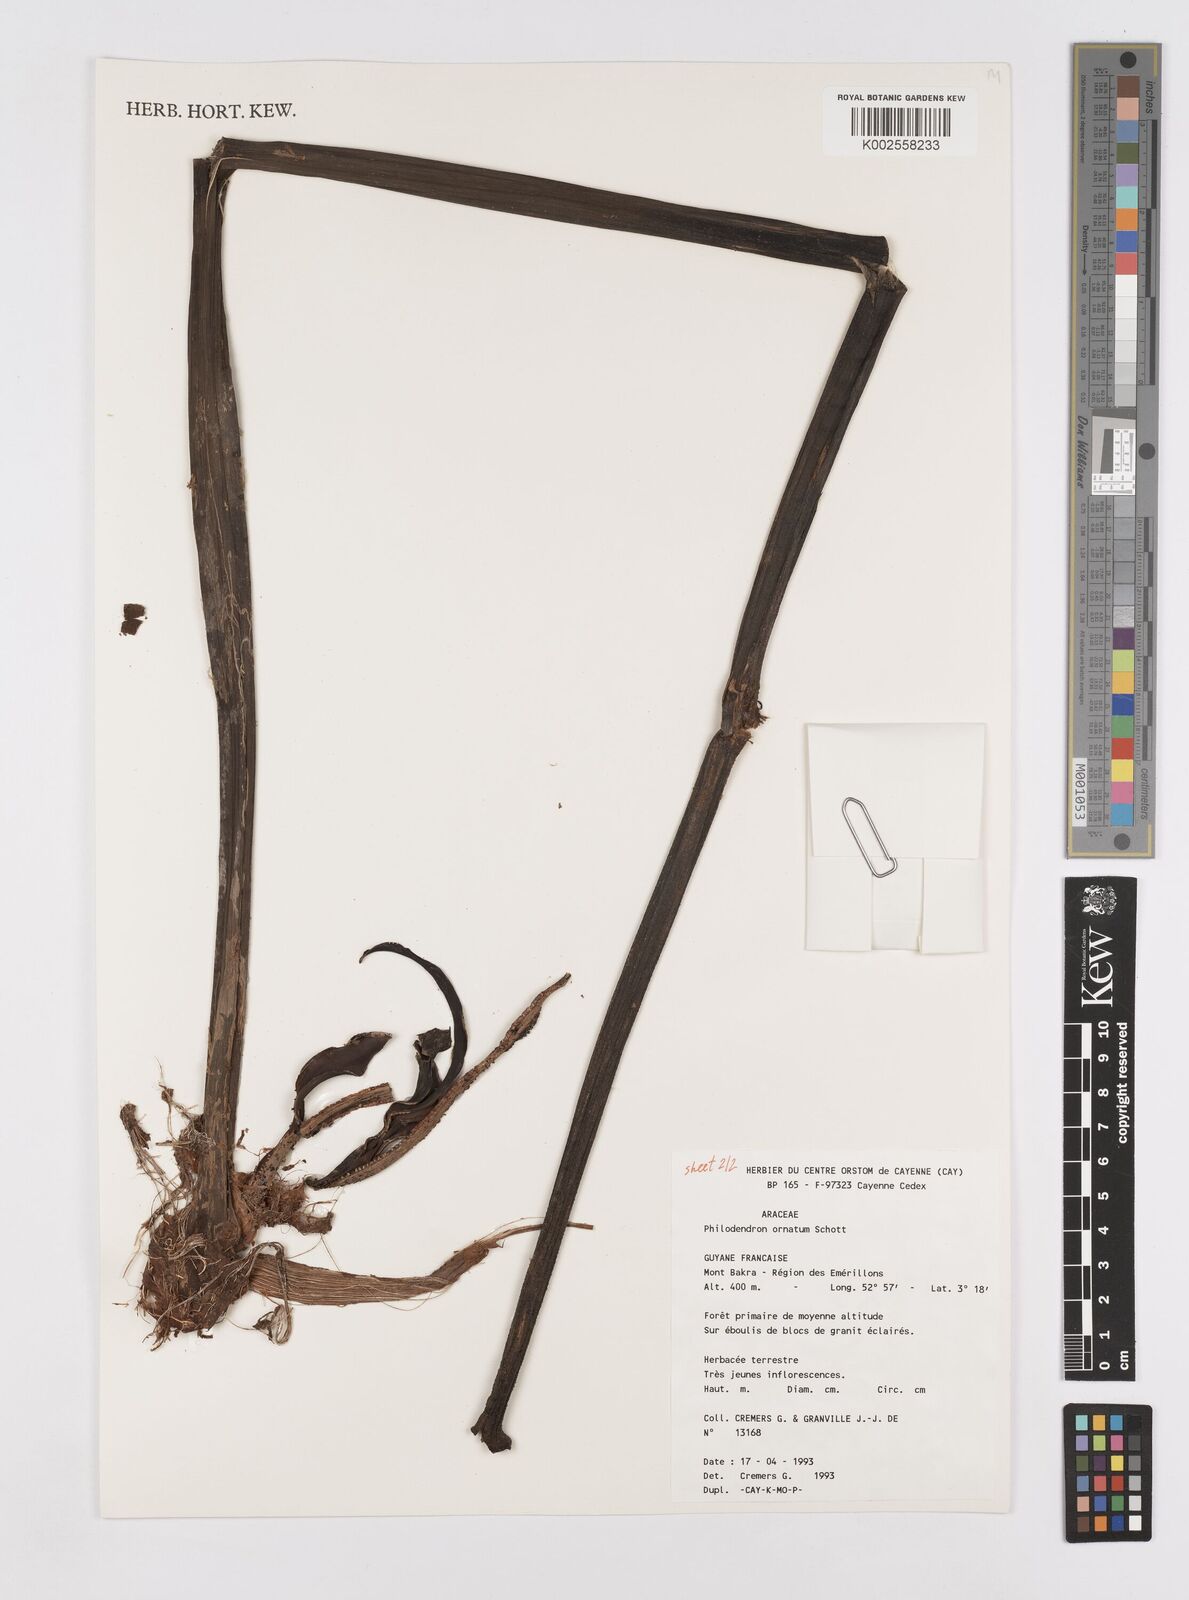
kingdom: Plantae
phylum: Tracheophyta
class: Liliopsida
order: Alismatales
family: Araceae
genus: Philodendron
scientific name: Philodendron ornatum
